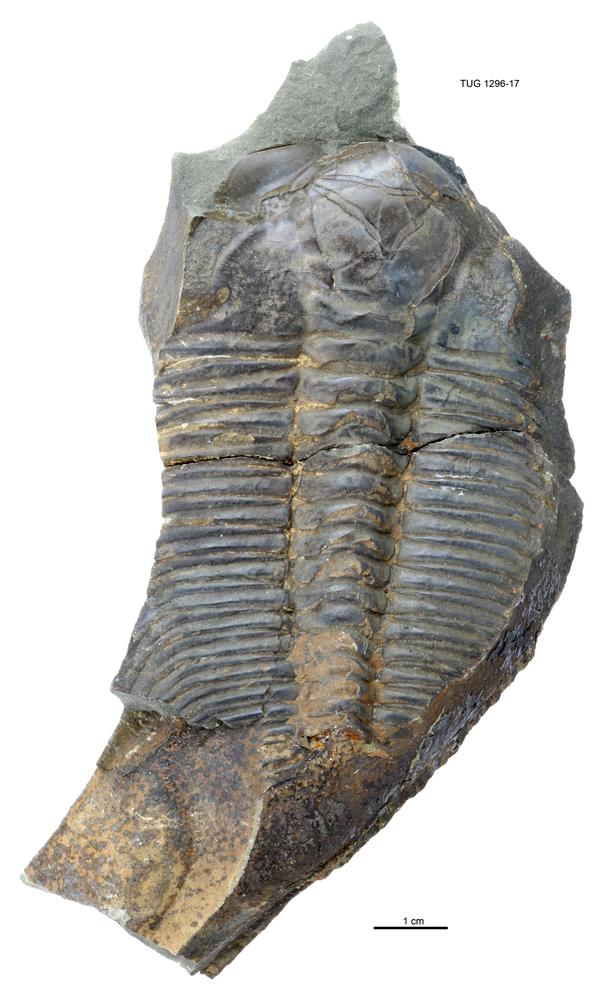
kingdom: Animalia
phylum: Arthropoda
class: Trilobita
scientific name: Trilobita
